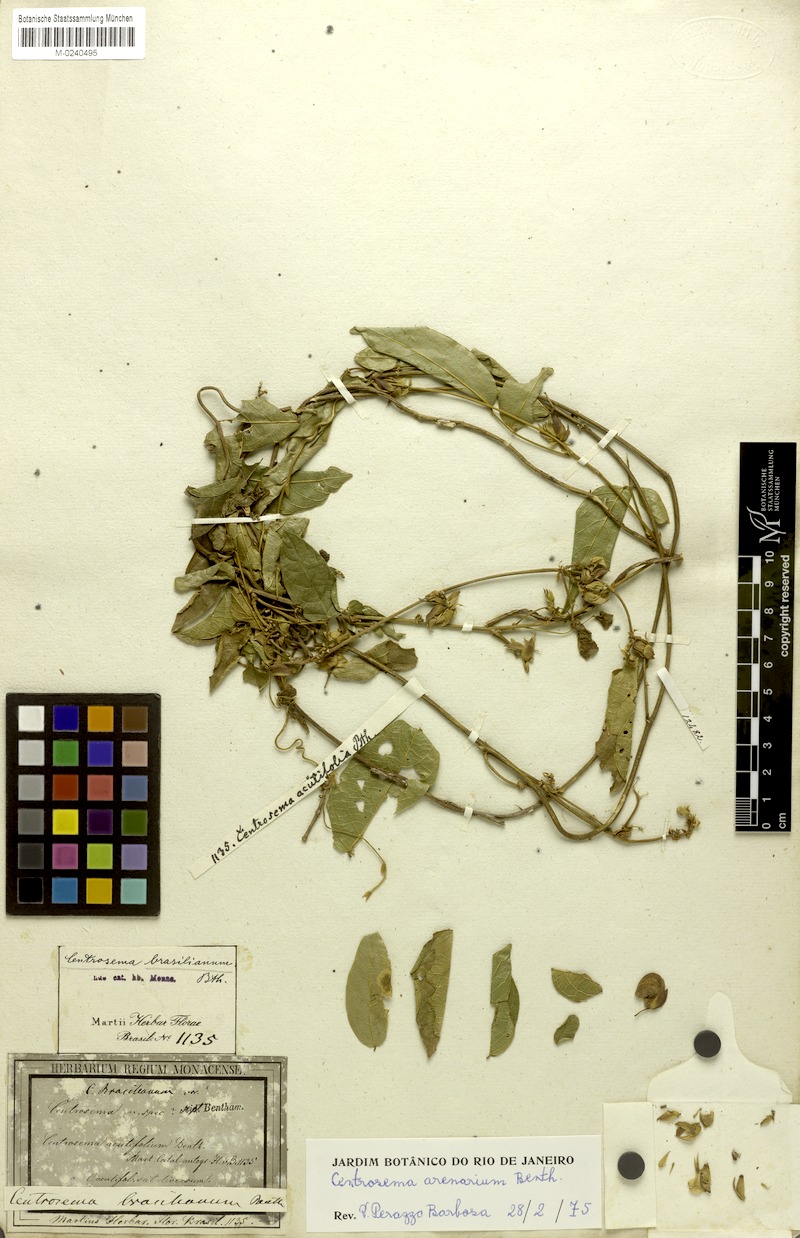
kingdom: Plantae
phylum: Tracheophyta
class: Magnoliopsida
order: Fabales
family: Fabaceae
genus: Centrosema
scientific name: Centrosema arenarium
